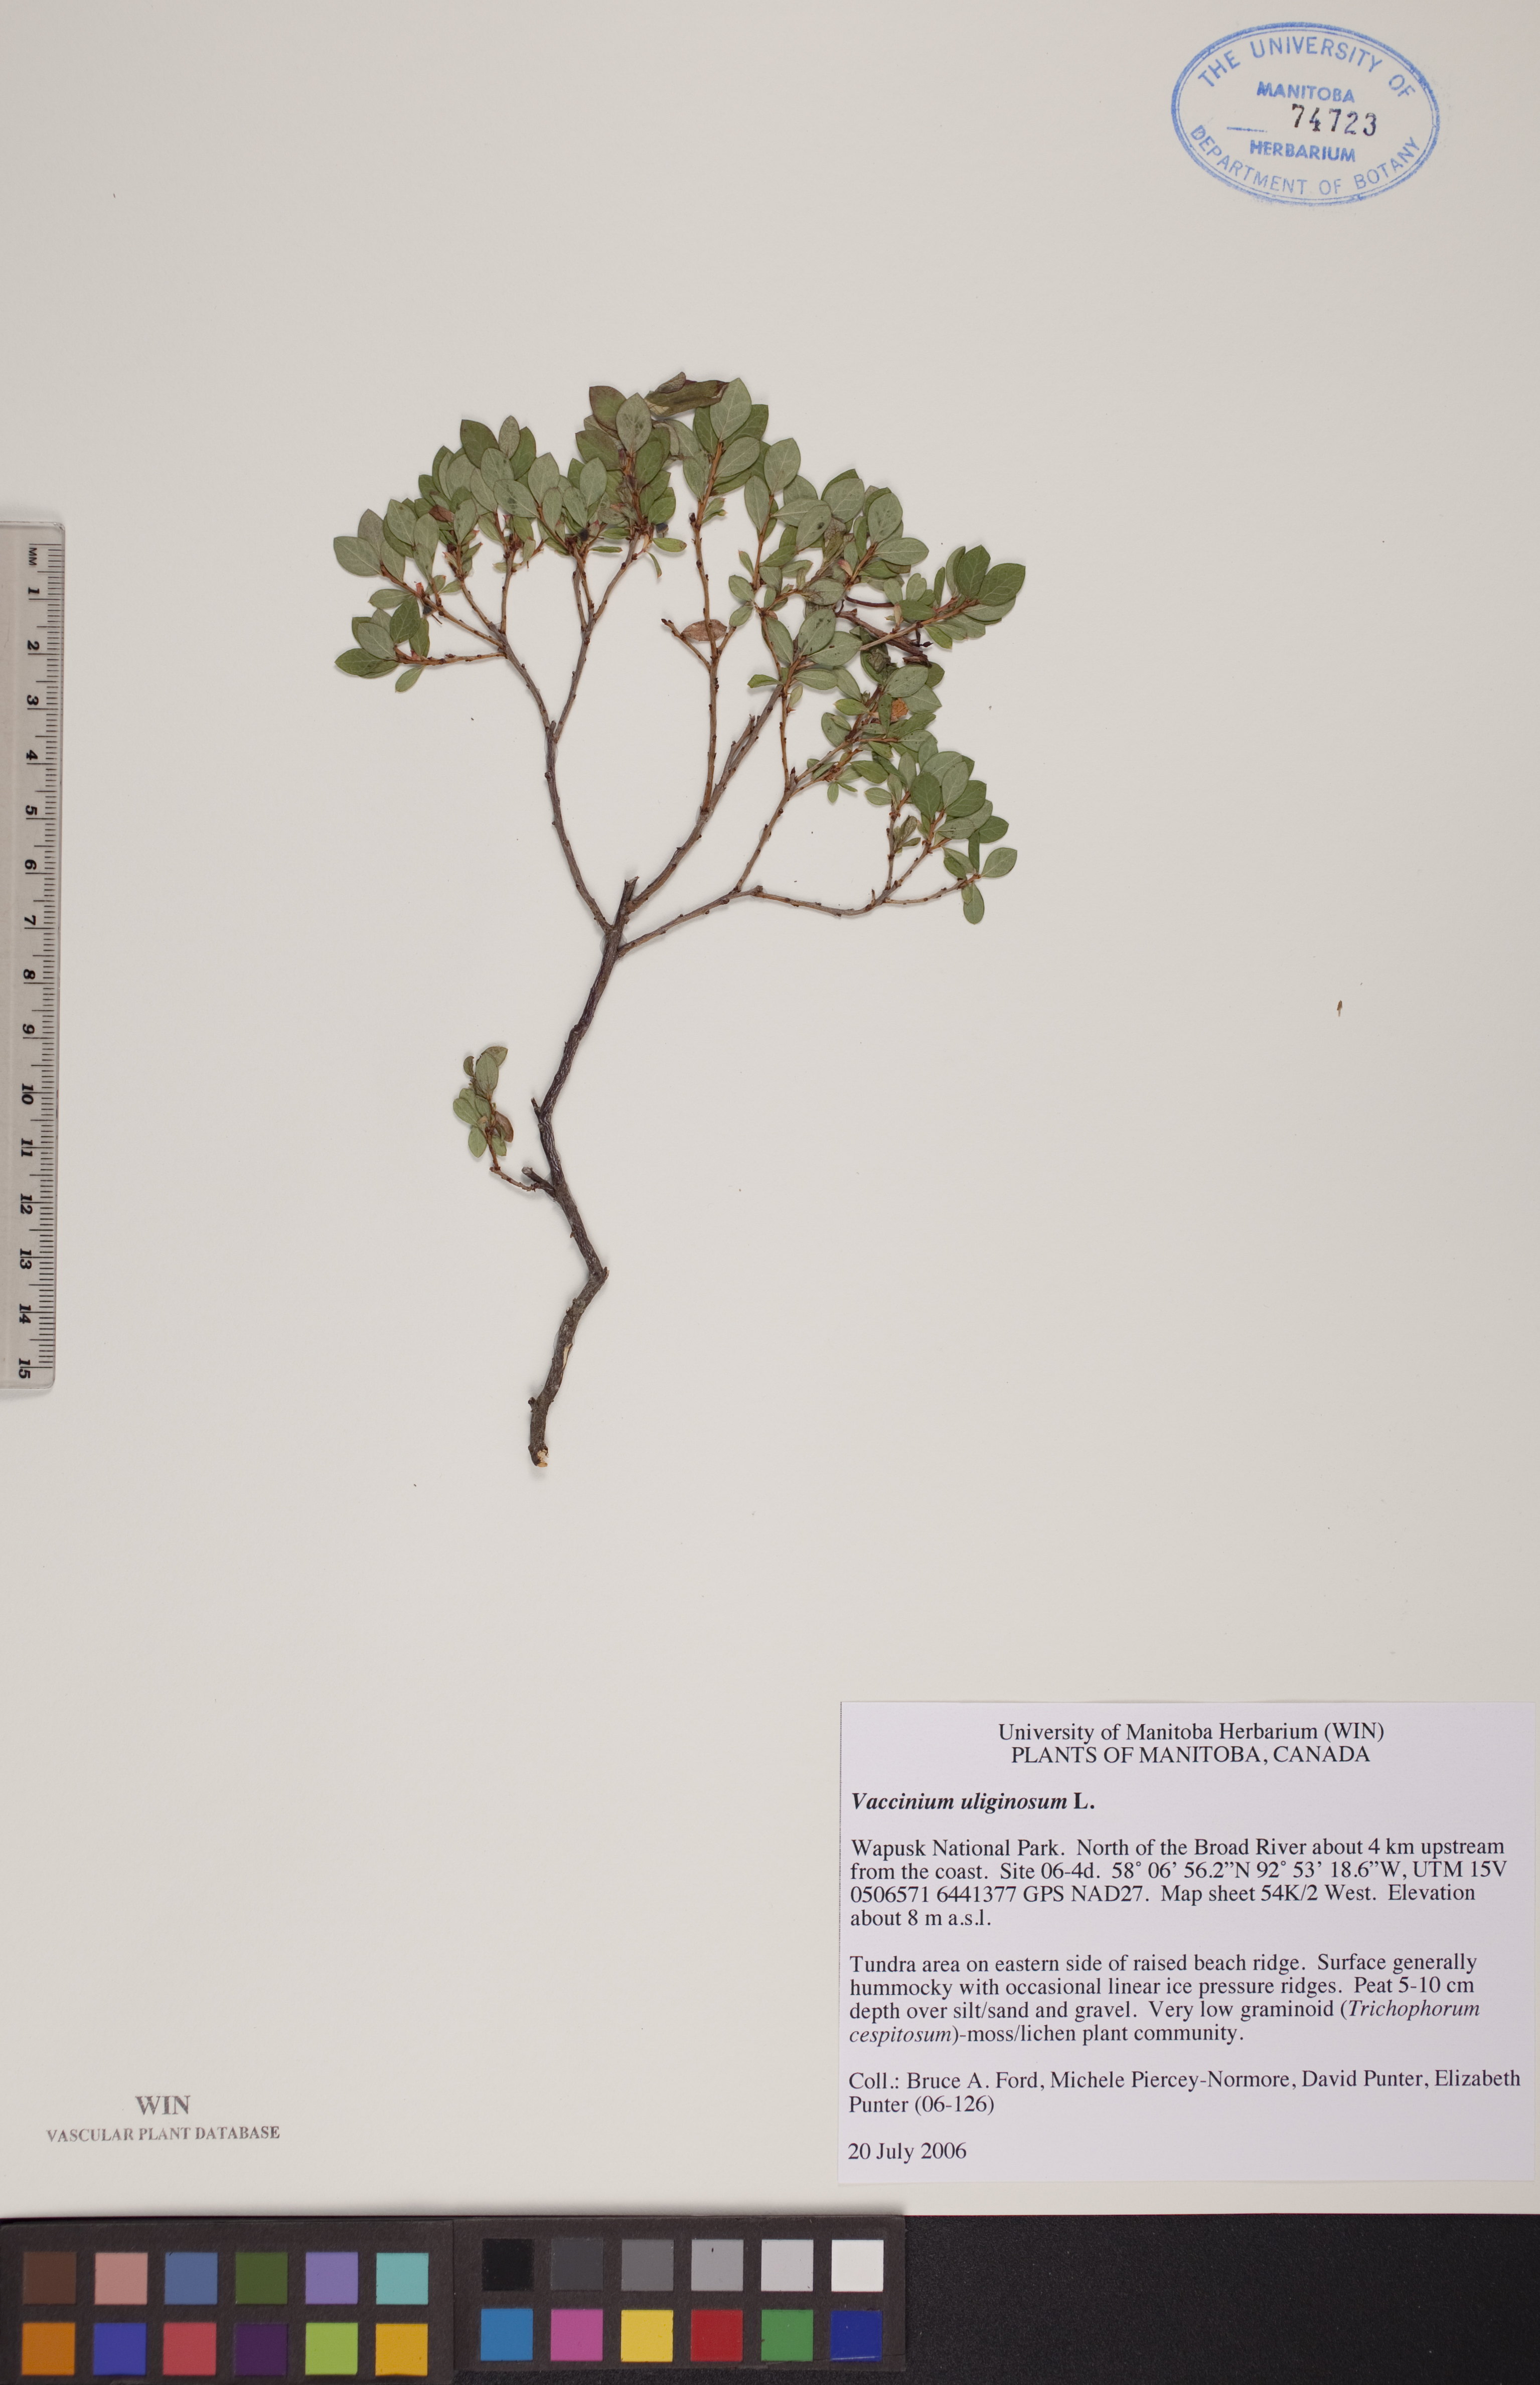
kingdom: Plantae
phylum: Tracheophyta
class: Magnoliopsida
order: Ericales
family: Ericaceae
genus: Vaccinium
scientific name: Vaccinium uliginosum
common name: Bog bilberry
